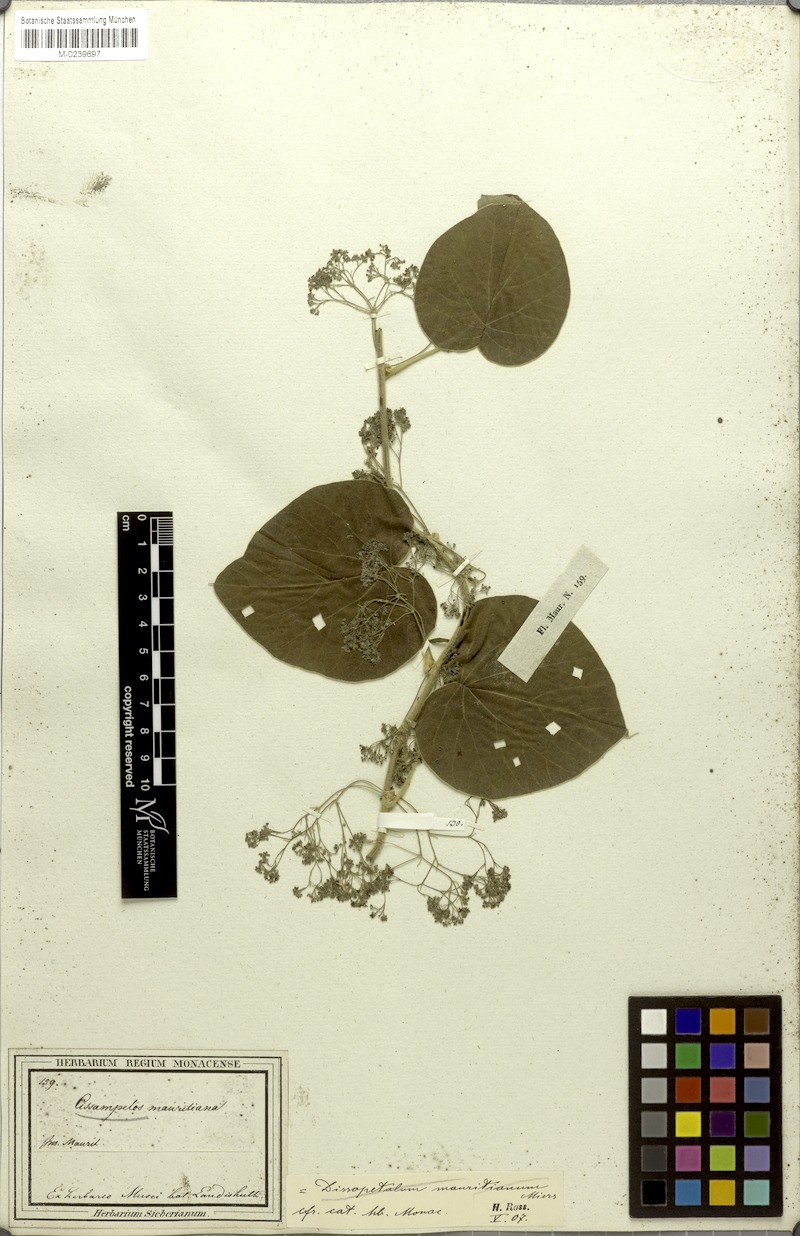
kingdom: Plantae
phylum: Tracheophyta
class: Magnoliopsida
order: Ranunculales
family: Menispermaceae
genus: Cissampelos
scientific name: Cissampelos pareira
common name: Velvetleaf
